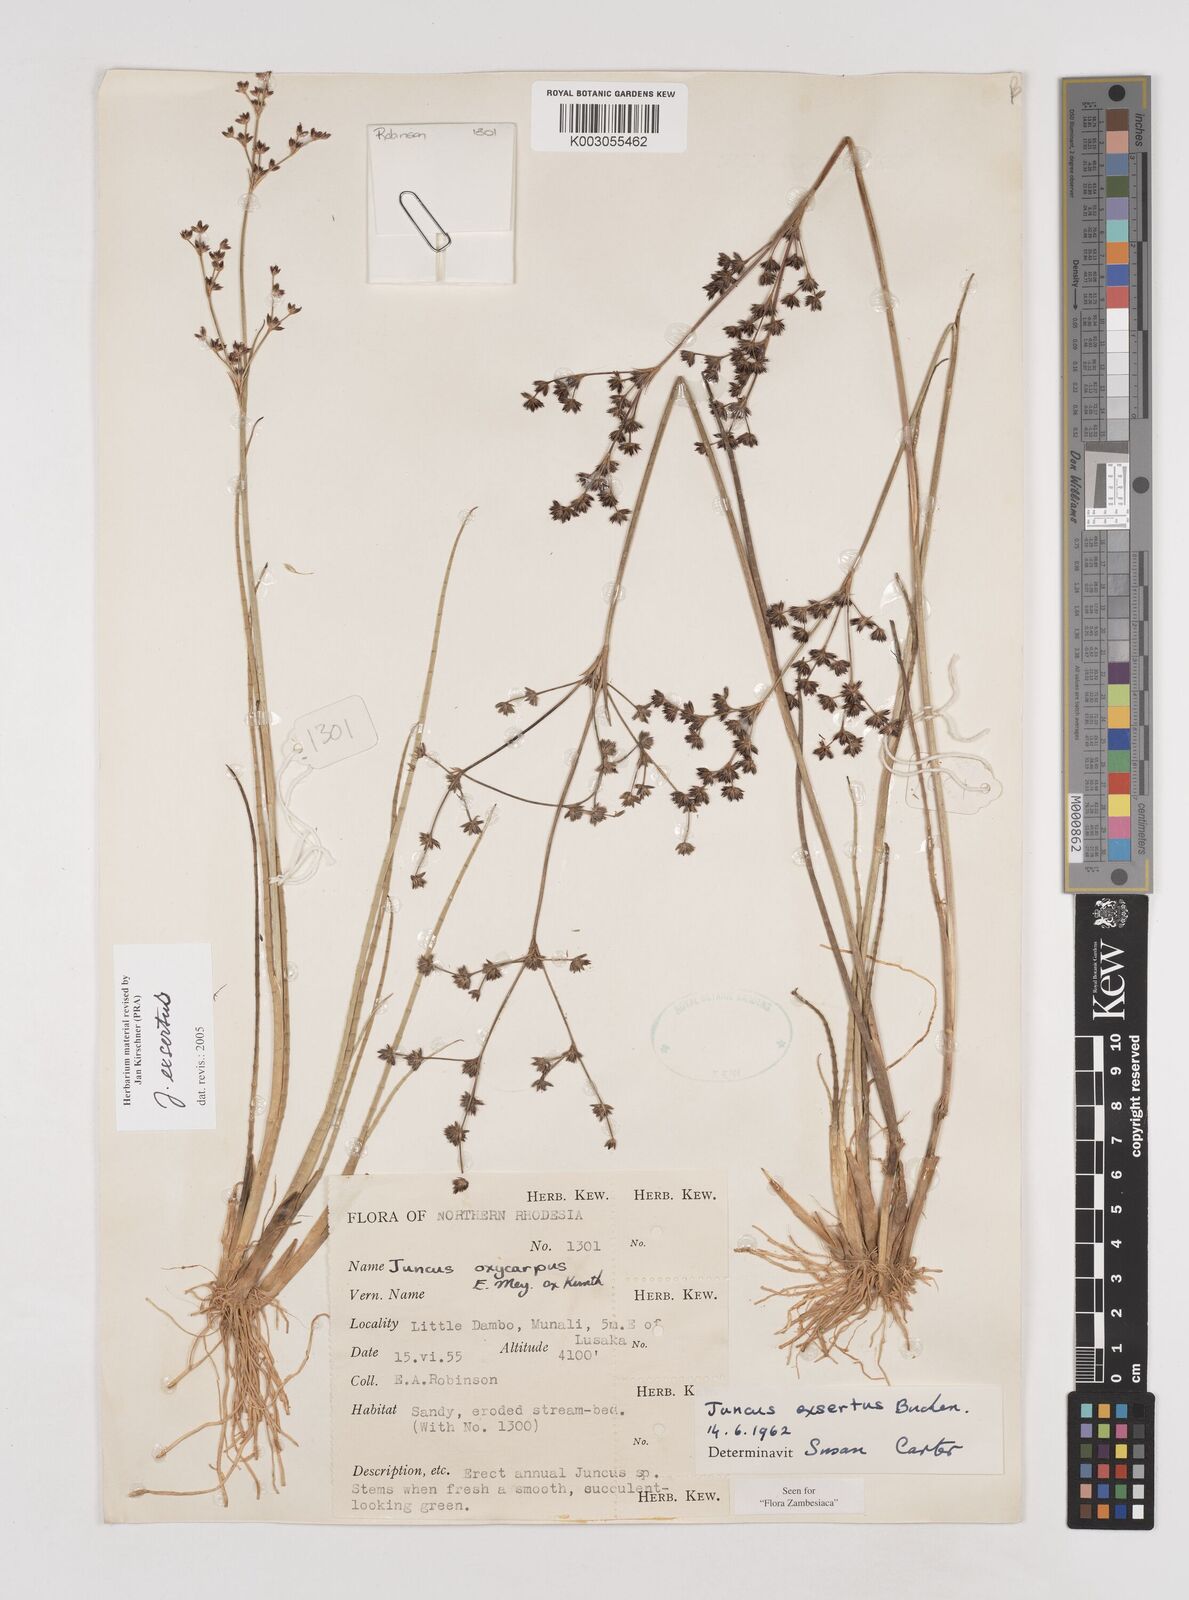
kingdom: Plantae
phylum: Tracheophyta
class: Liliopsida
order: Poales
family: Juncaceae
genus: Juncus
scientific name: Juncus exsertus
